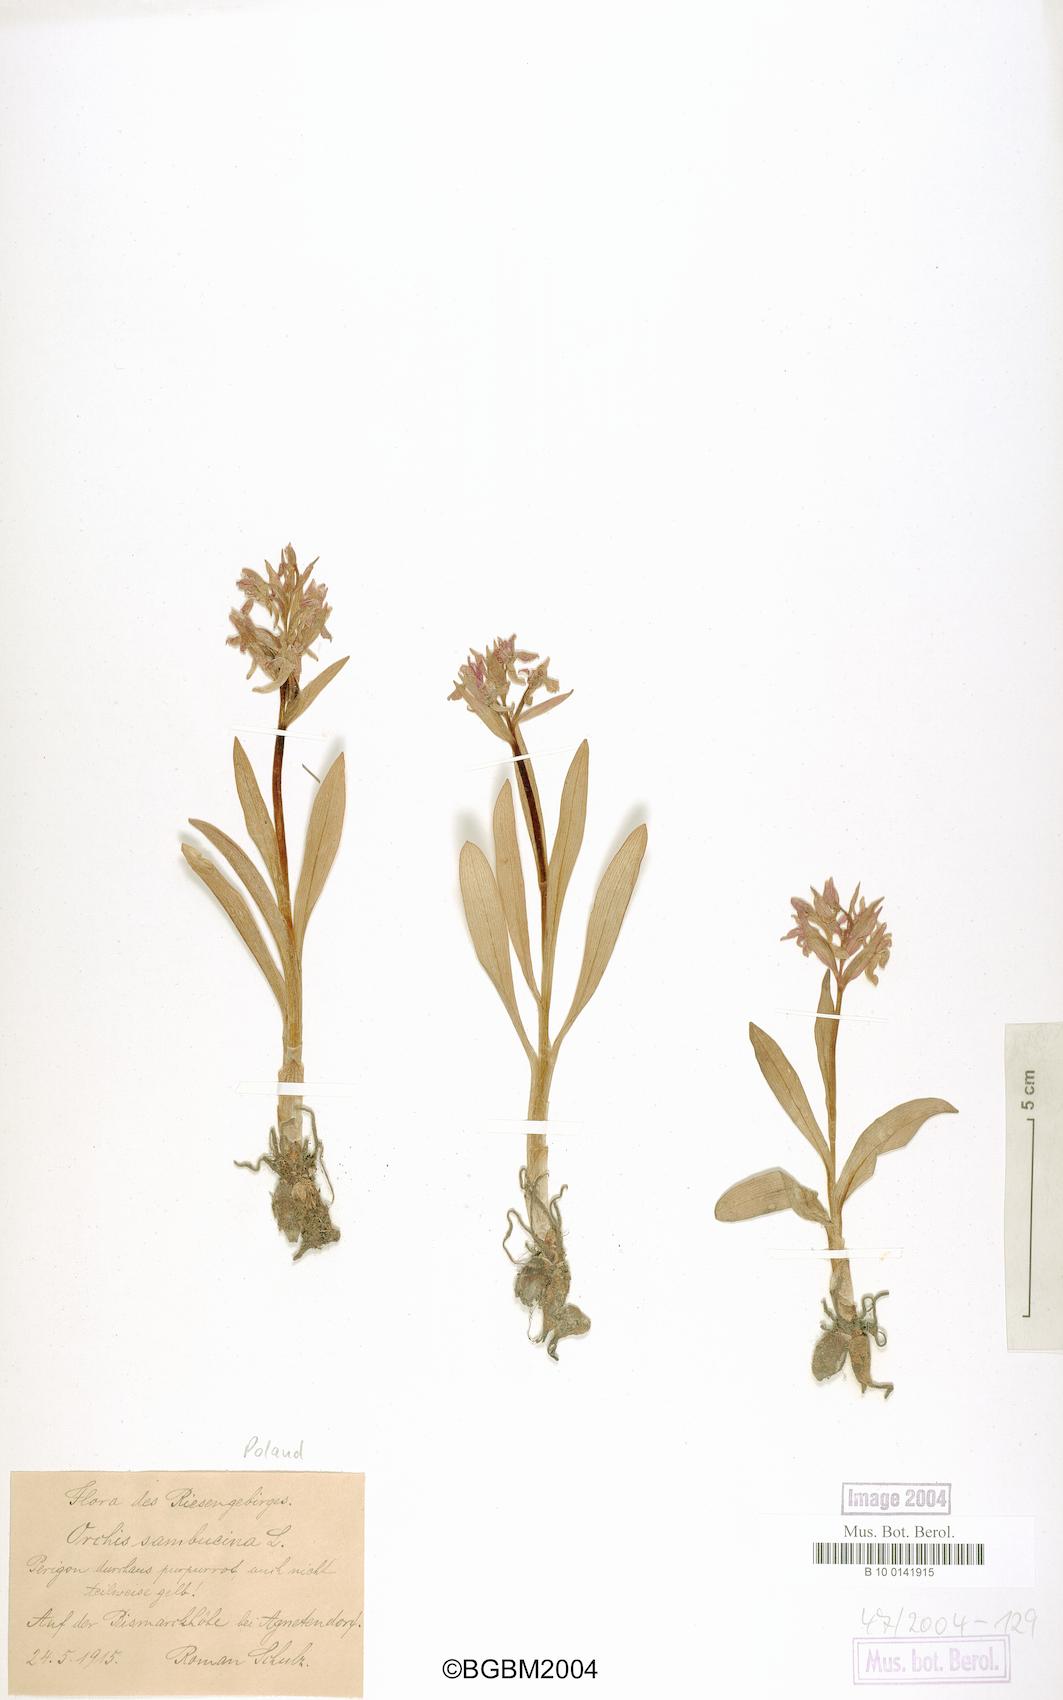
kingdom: Plantae
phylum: Tracheophyta
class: Liliopsida
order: Asparagales
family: Orchidaceae
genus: Dactylorhiza
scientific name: Dactylorhiza sambucina
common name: Elder-flowered orchid
